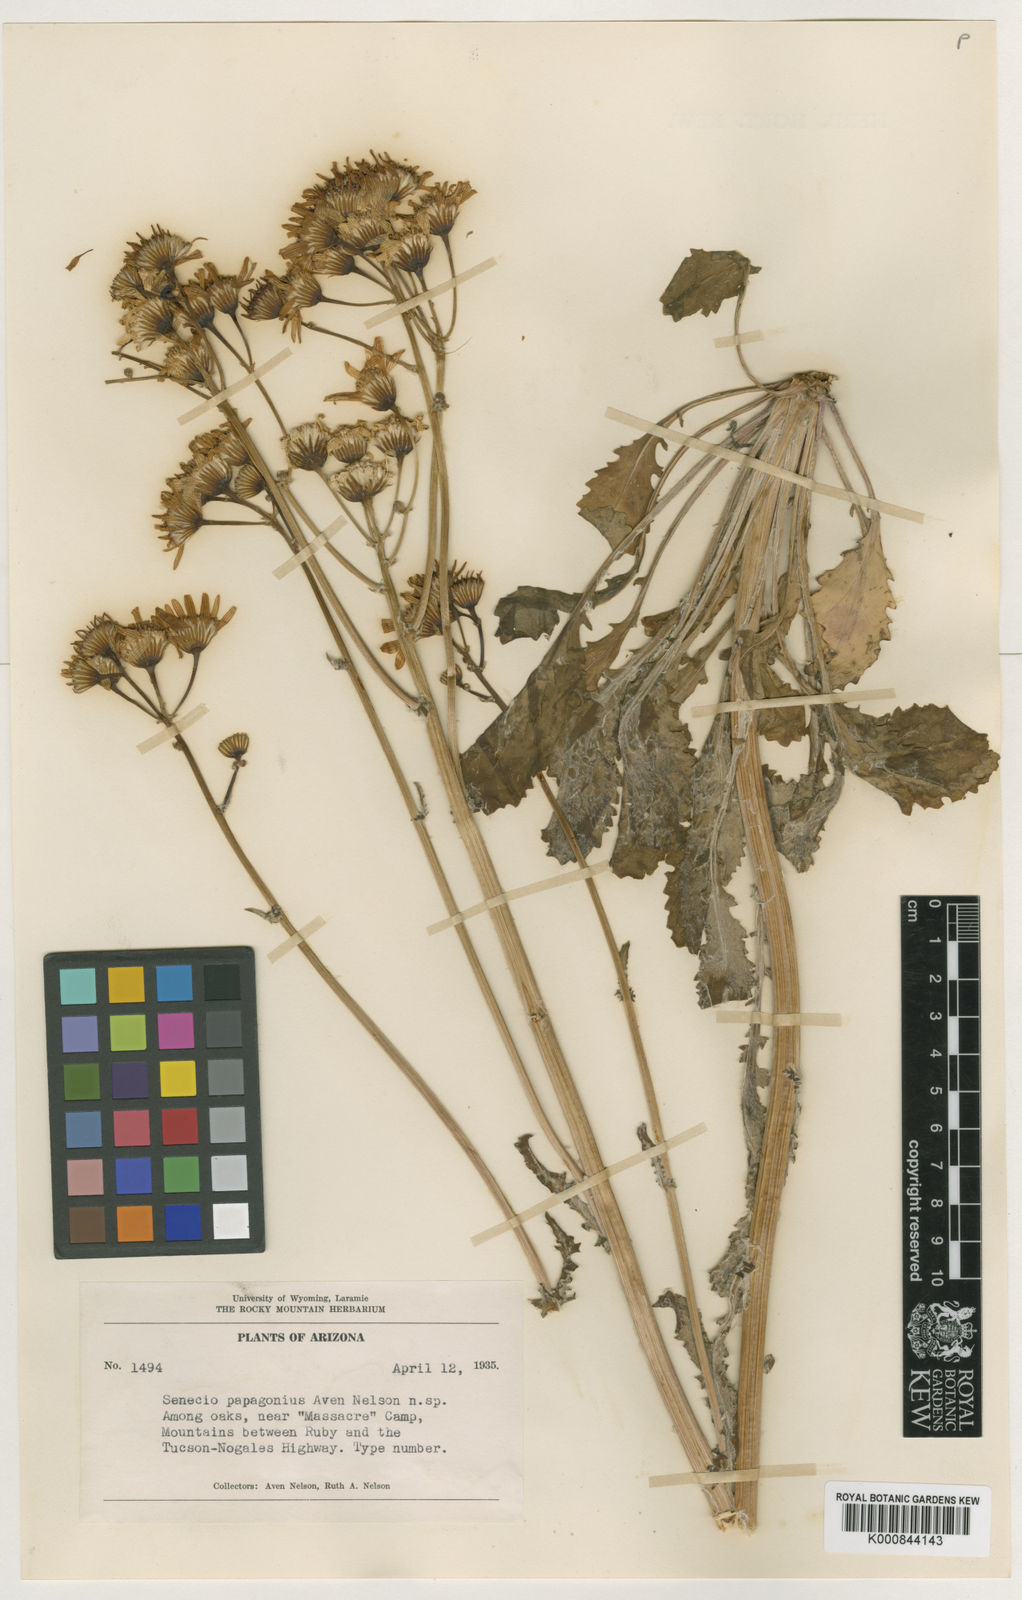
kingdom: Plantae
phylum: Tracheophyta
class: Magnoliopsida
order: Asterales
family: Asteraceae
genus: Packera
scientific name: Packera
